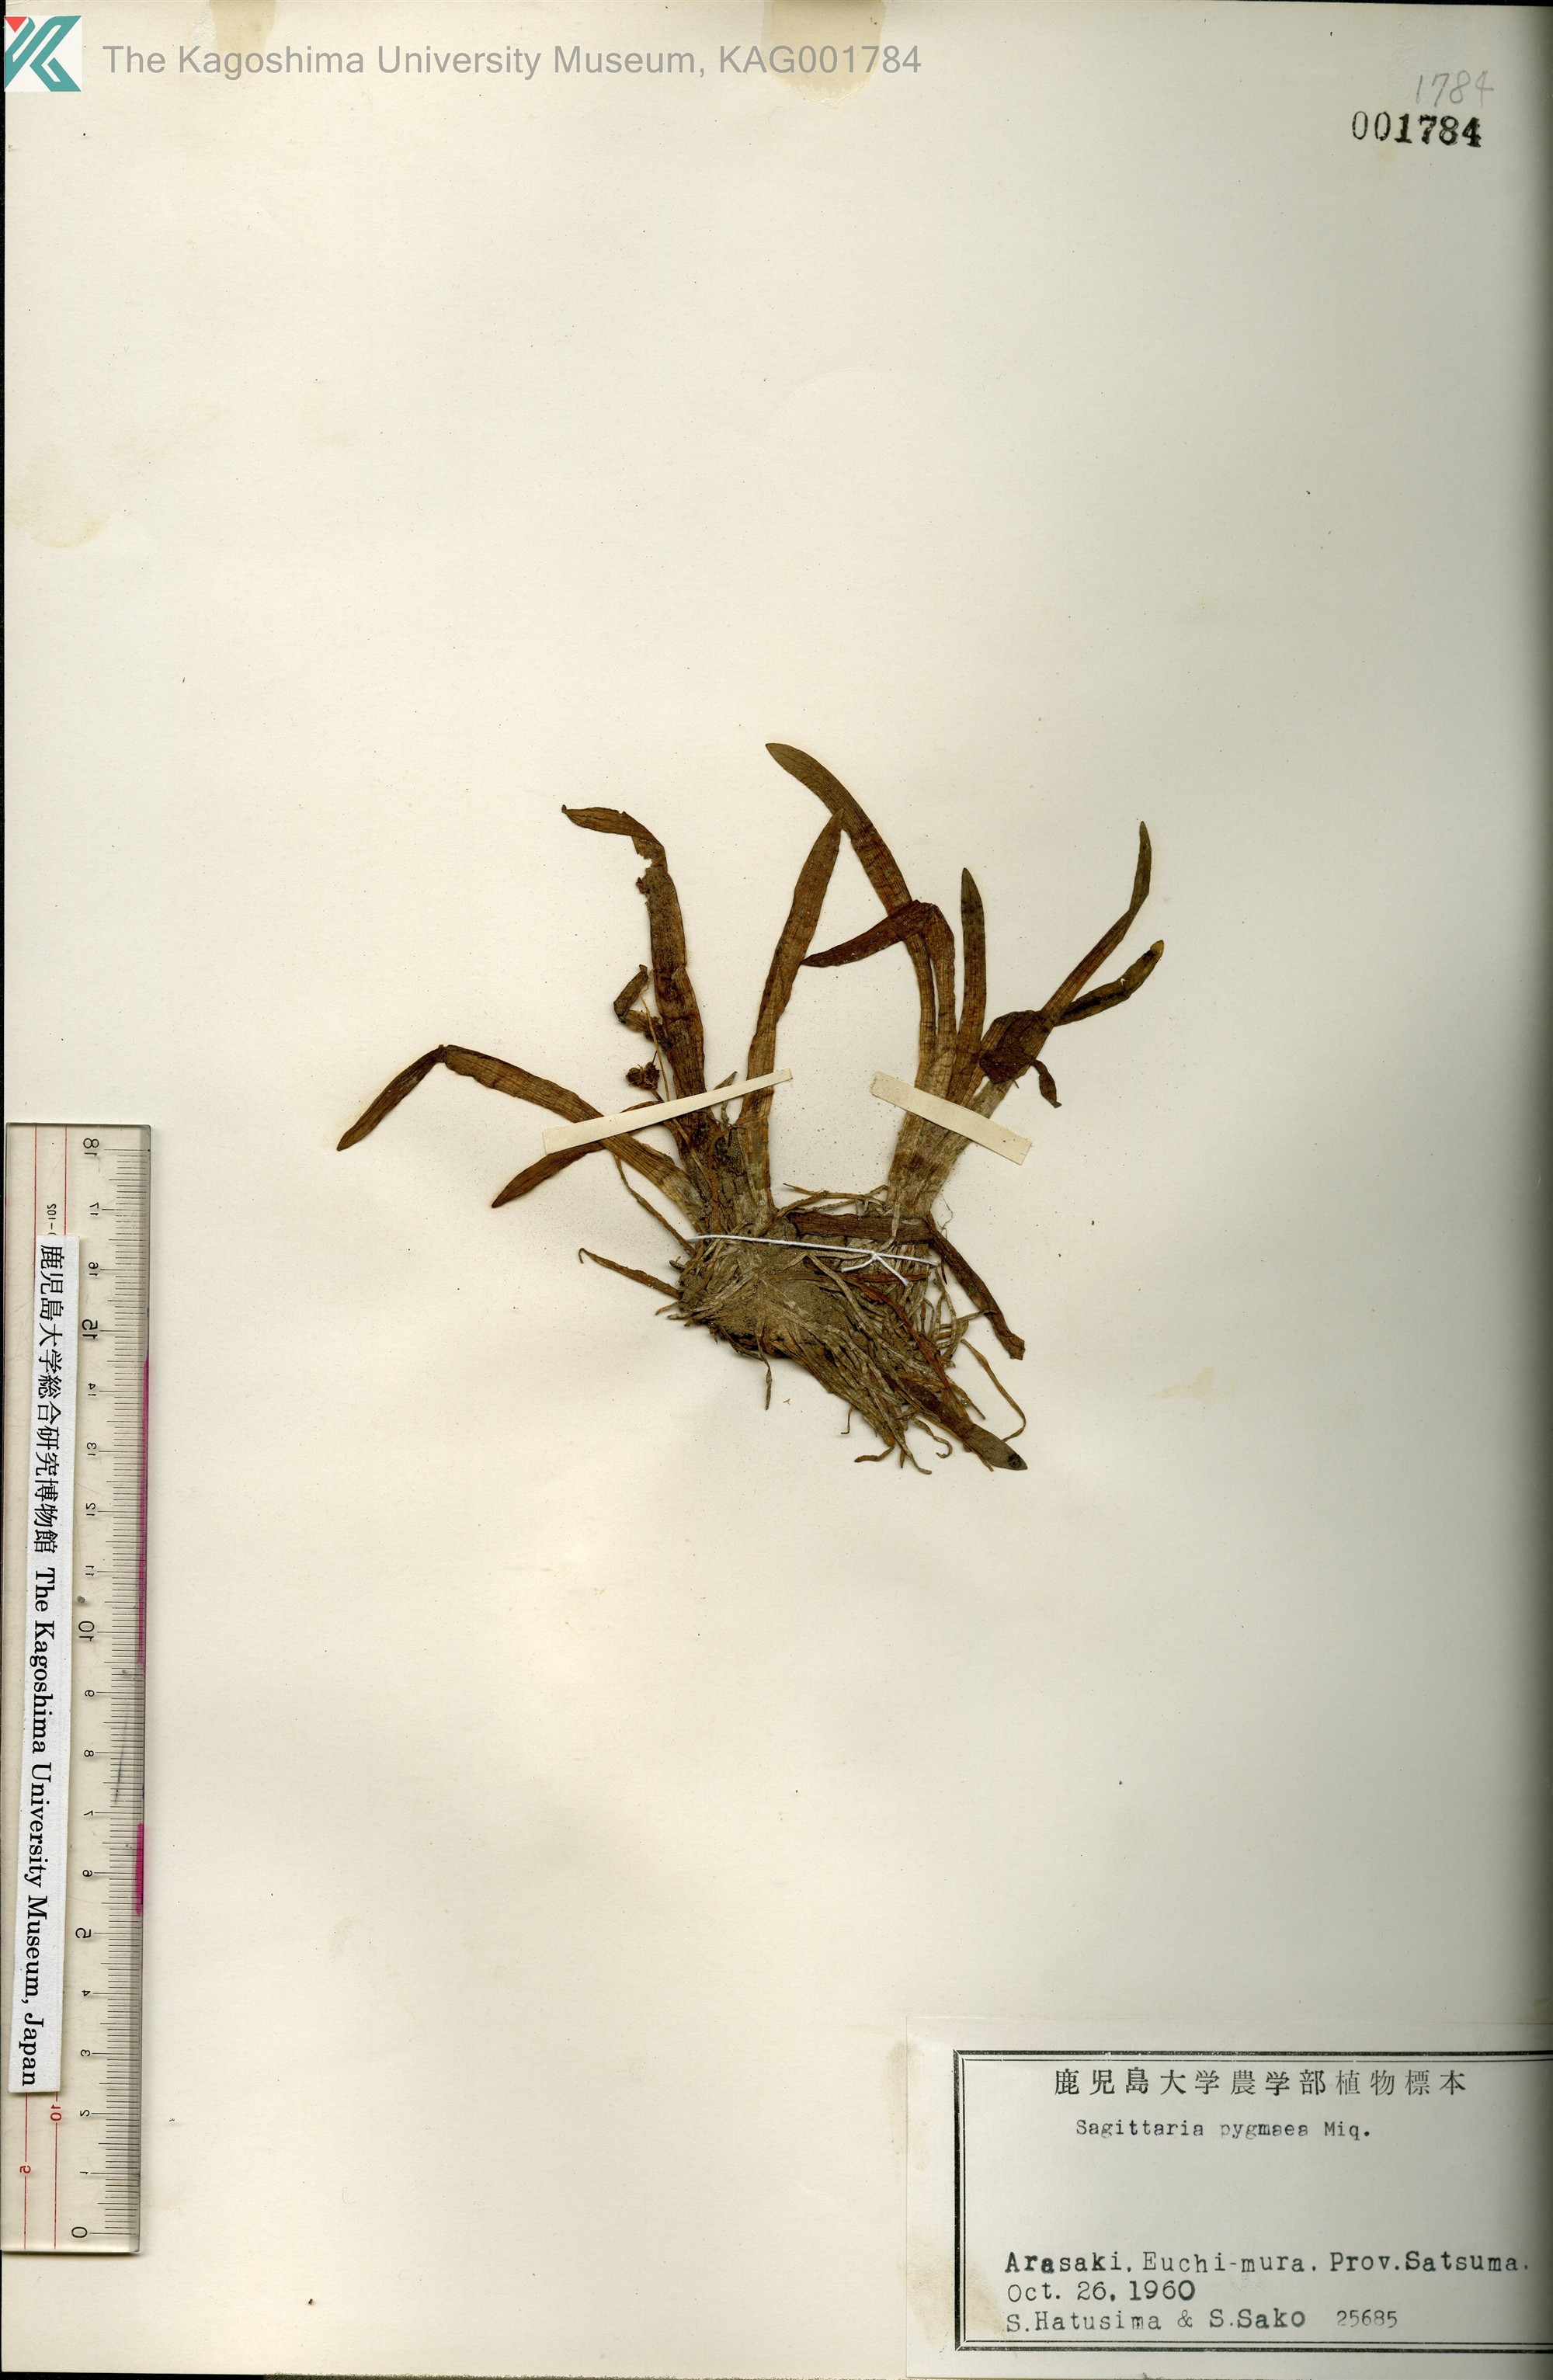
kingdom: Plantae
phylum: Tracheophyta
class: Liliopsida
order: Alismatales
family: Alismataceae
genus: Sagittaria
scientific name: Sagittaria pygmaea
